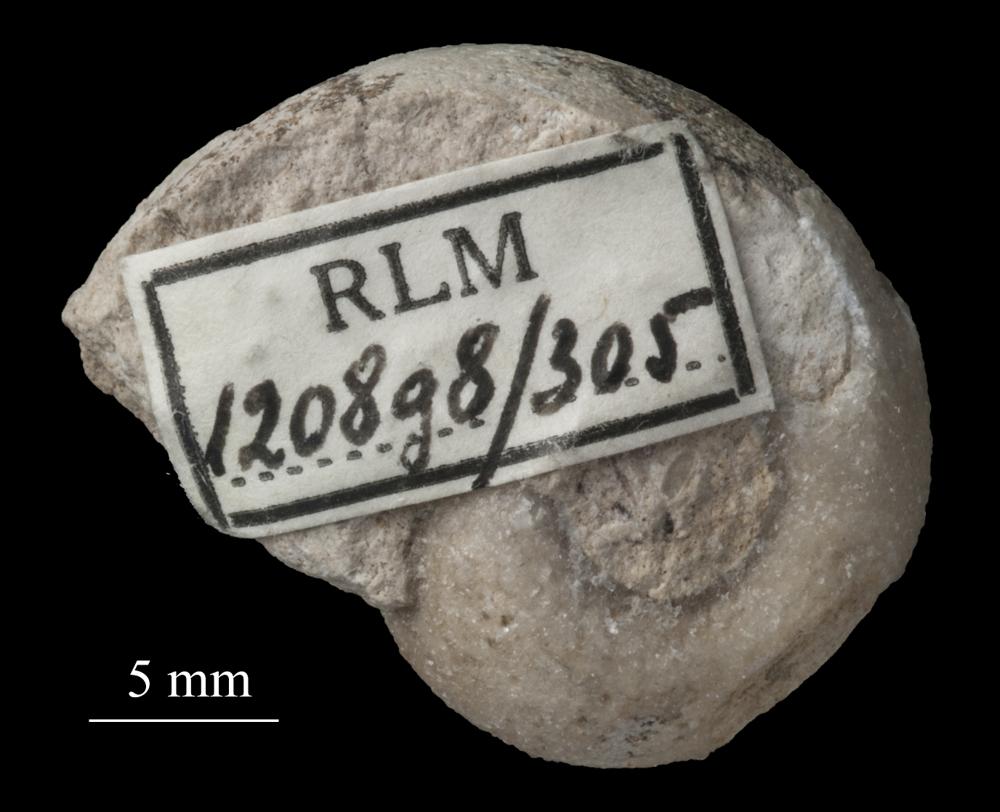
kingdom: Animalia
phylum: Mollusca
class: Gastropoda
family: Bellerophontidae
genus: Bellerophon
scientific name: Bellerophon
